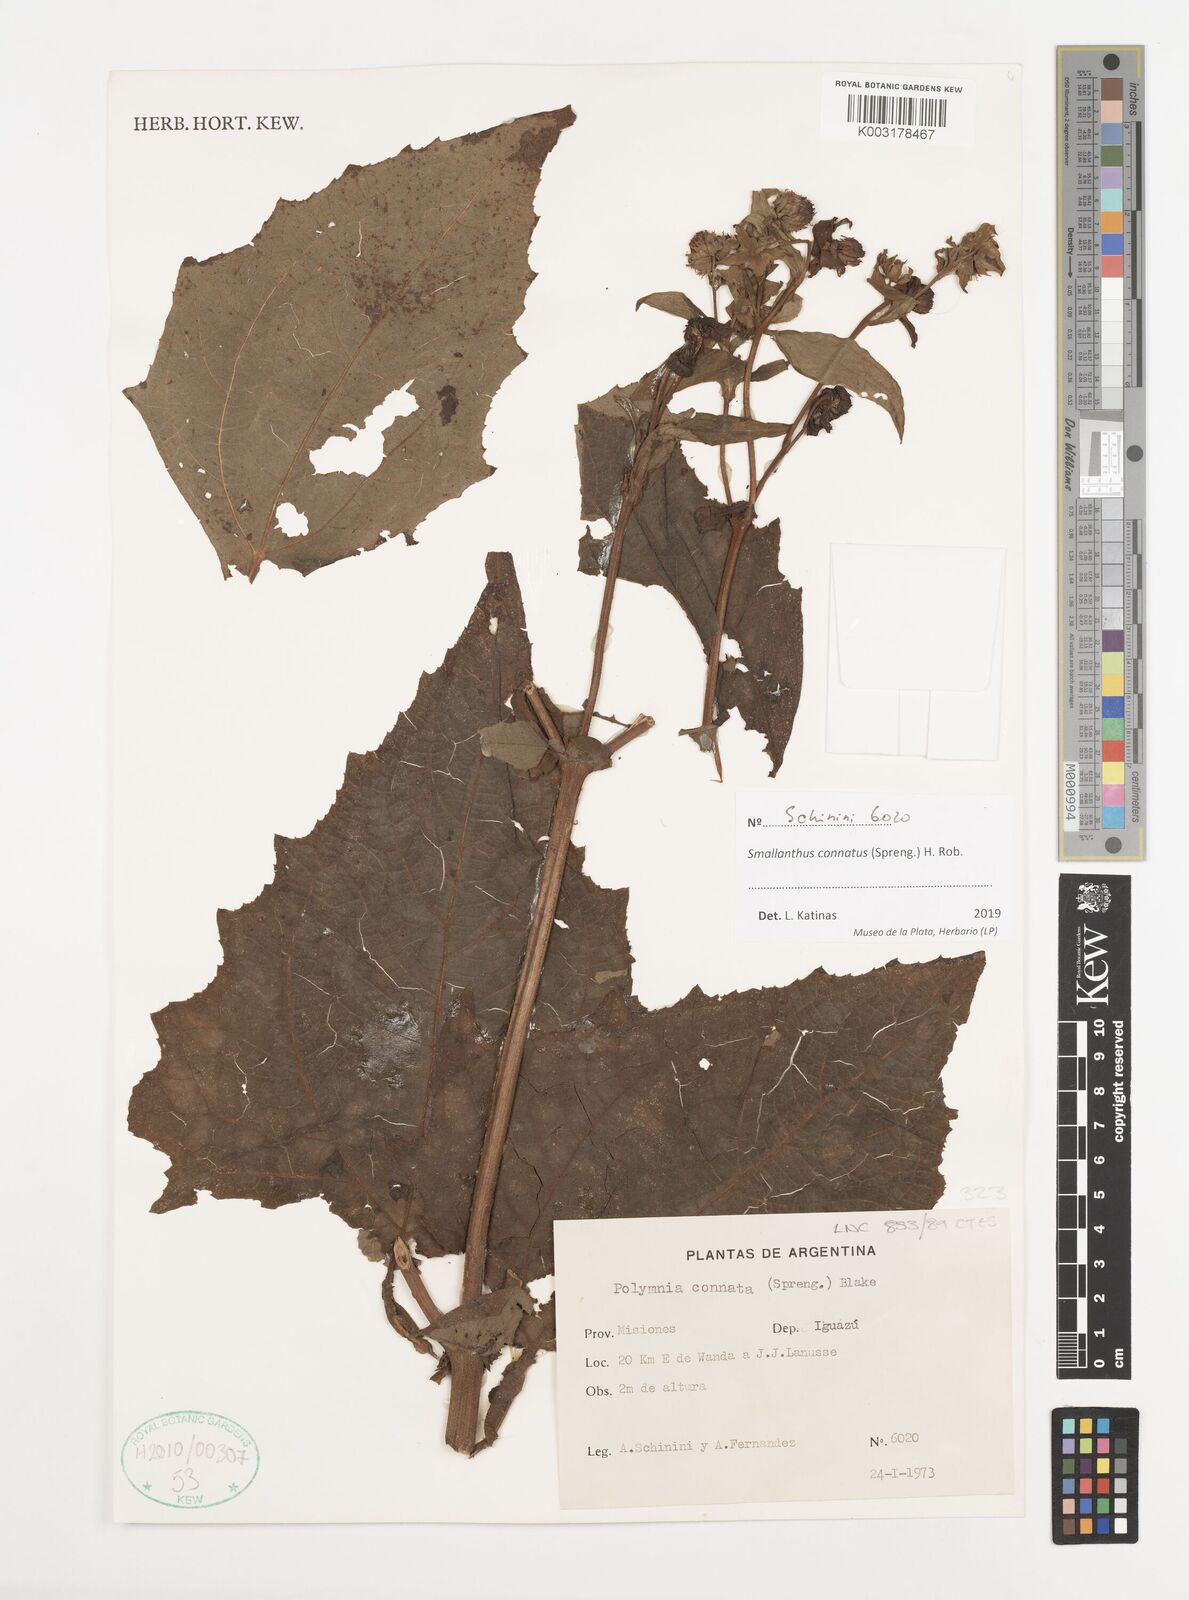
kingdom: Plantae
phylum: Tracheophyta
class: Magnoliopsida
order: Asterales
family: Asteraceae
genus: Smallanthus
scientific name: Smallanthus connatus
